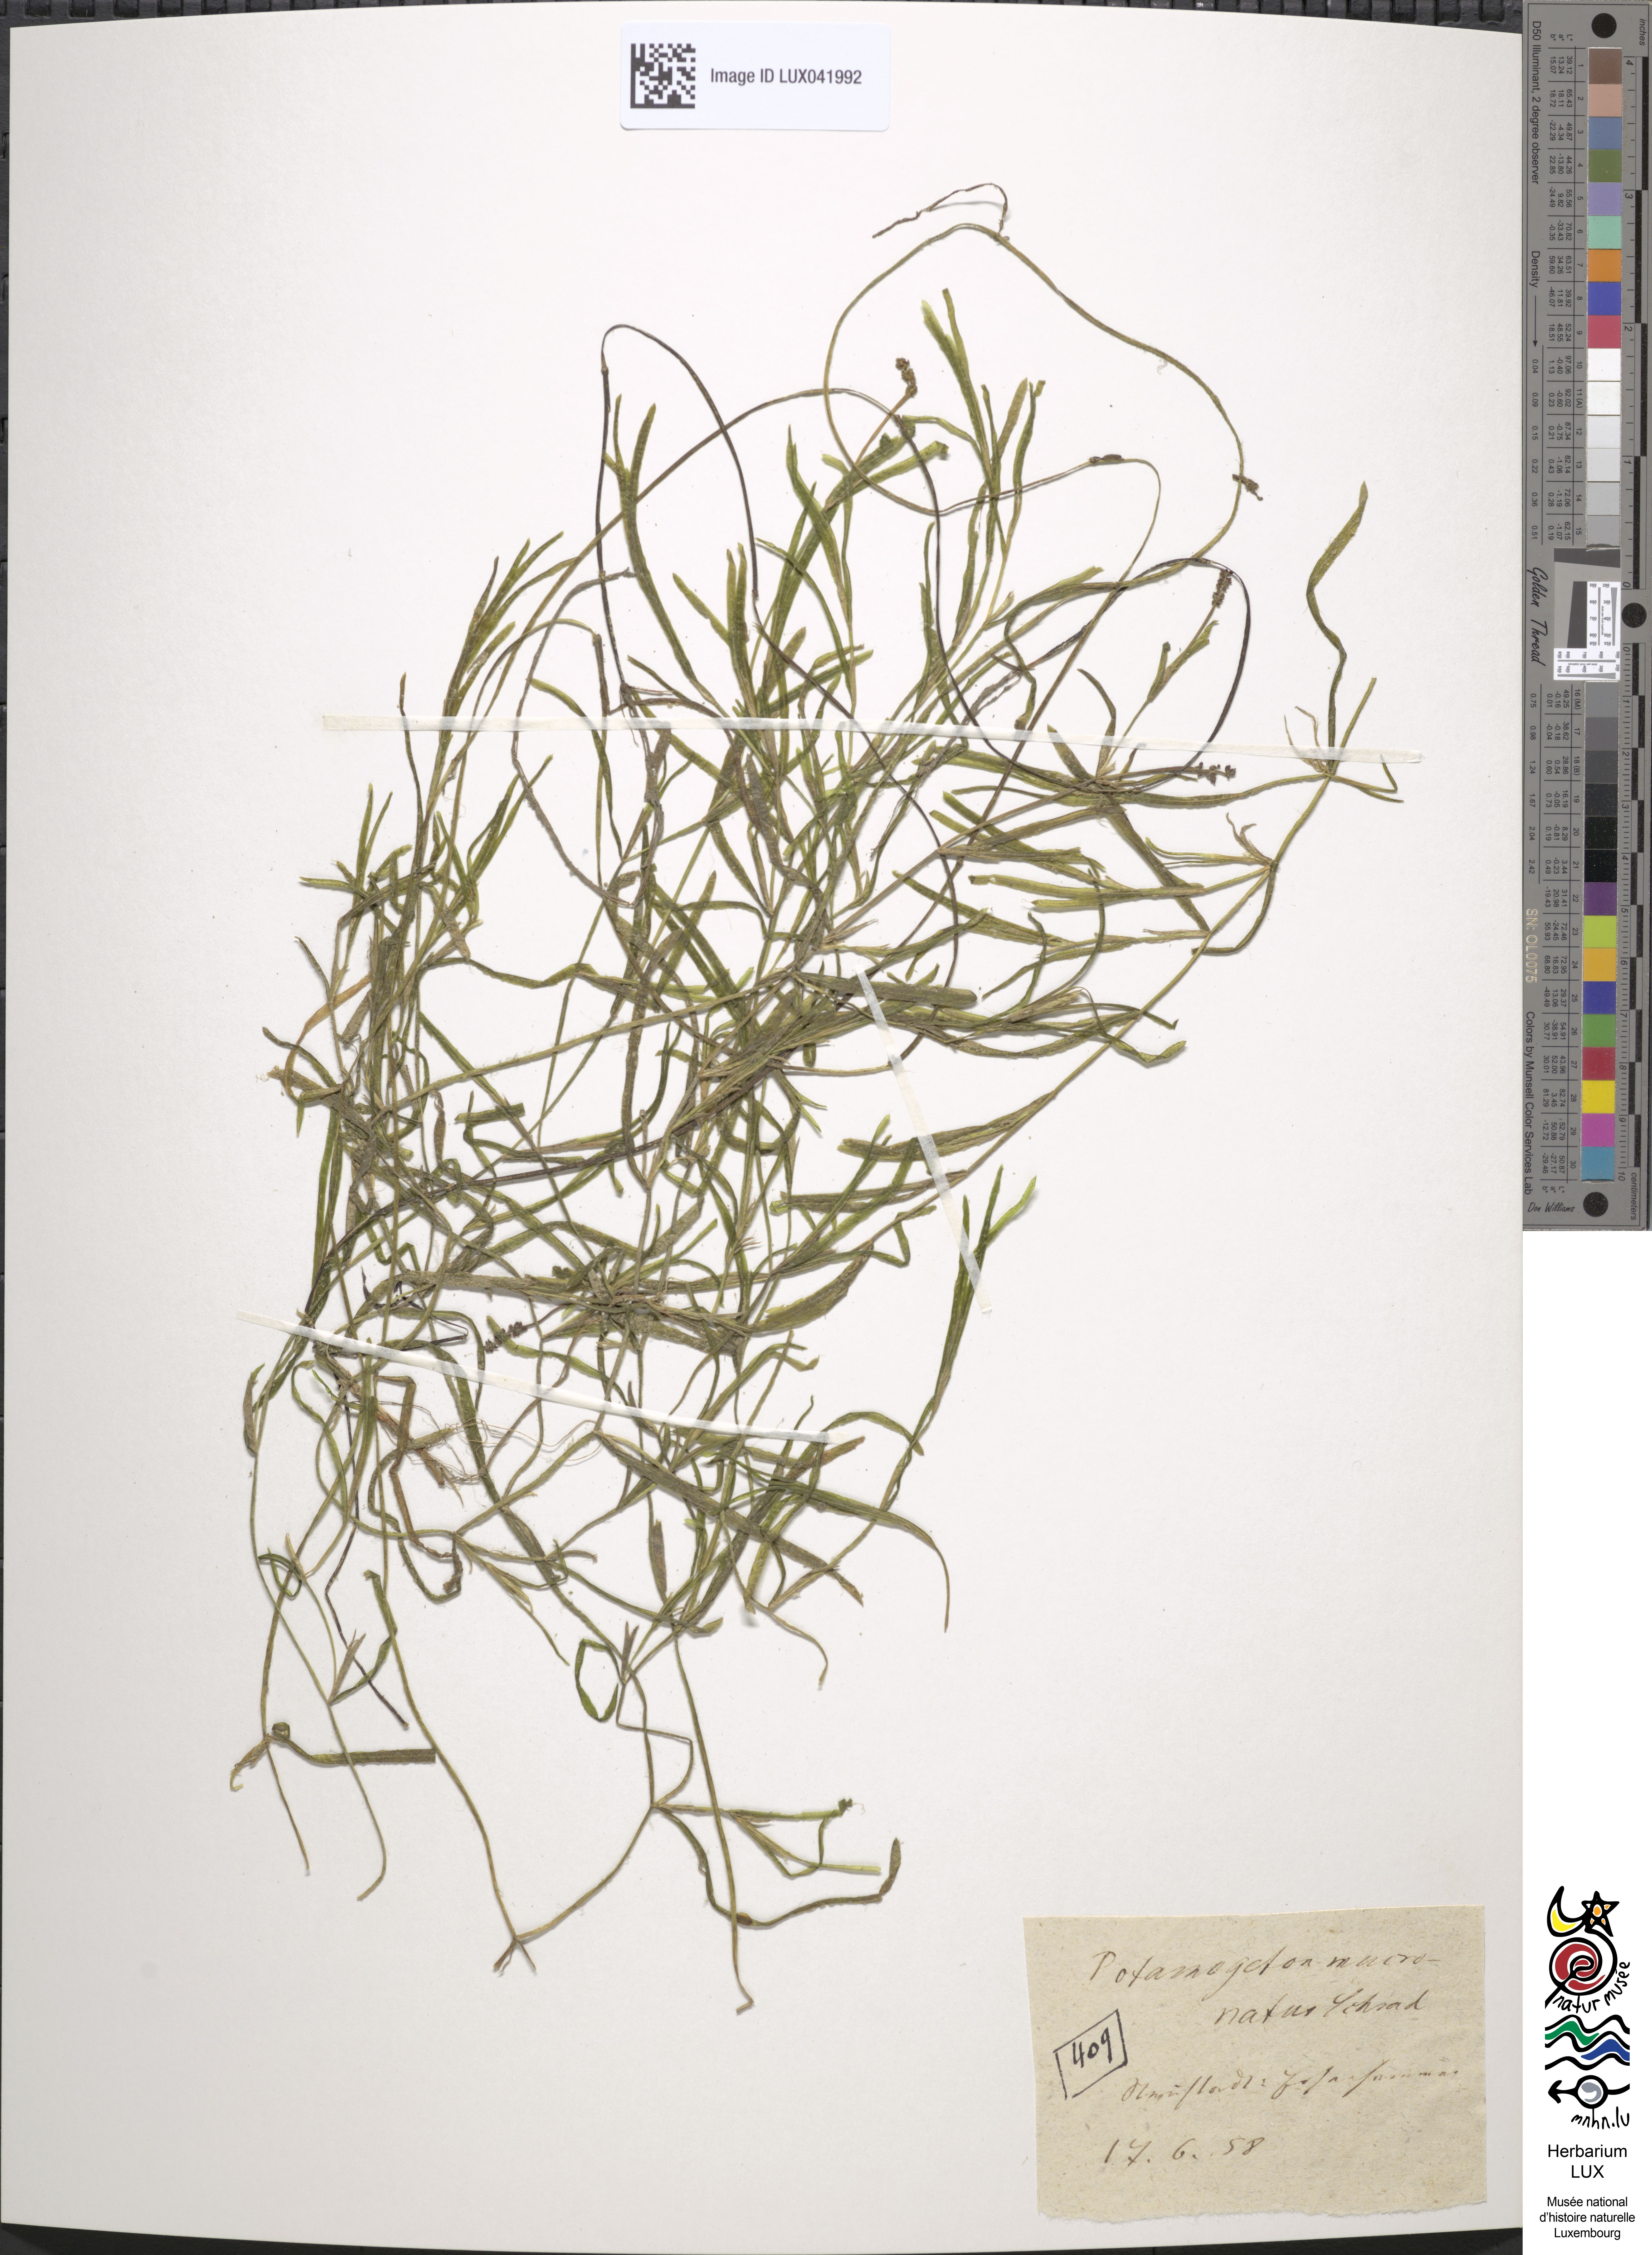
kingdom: Plantae
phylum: Tracheophyta
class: Liliopsida
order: Alismatales
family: Potamogetonaceae
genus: Potamogeton
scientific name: Potamogeton friesii
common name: Flat-stalked pondweed
